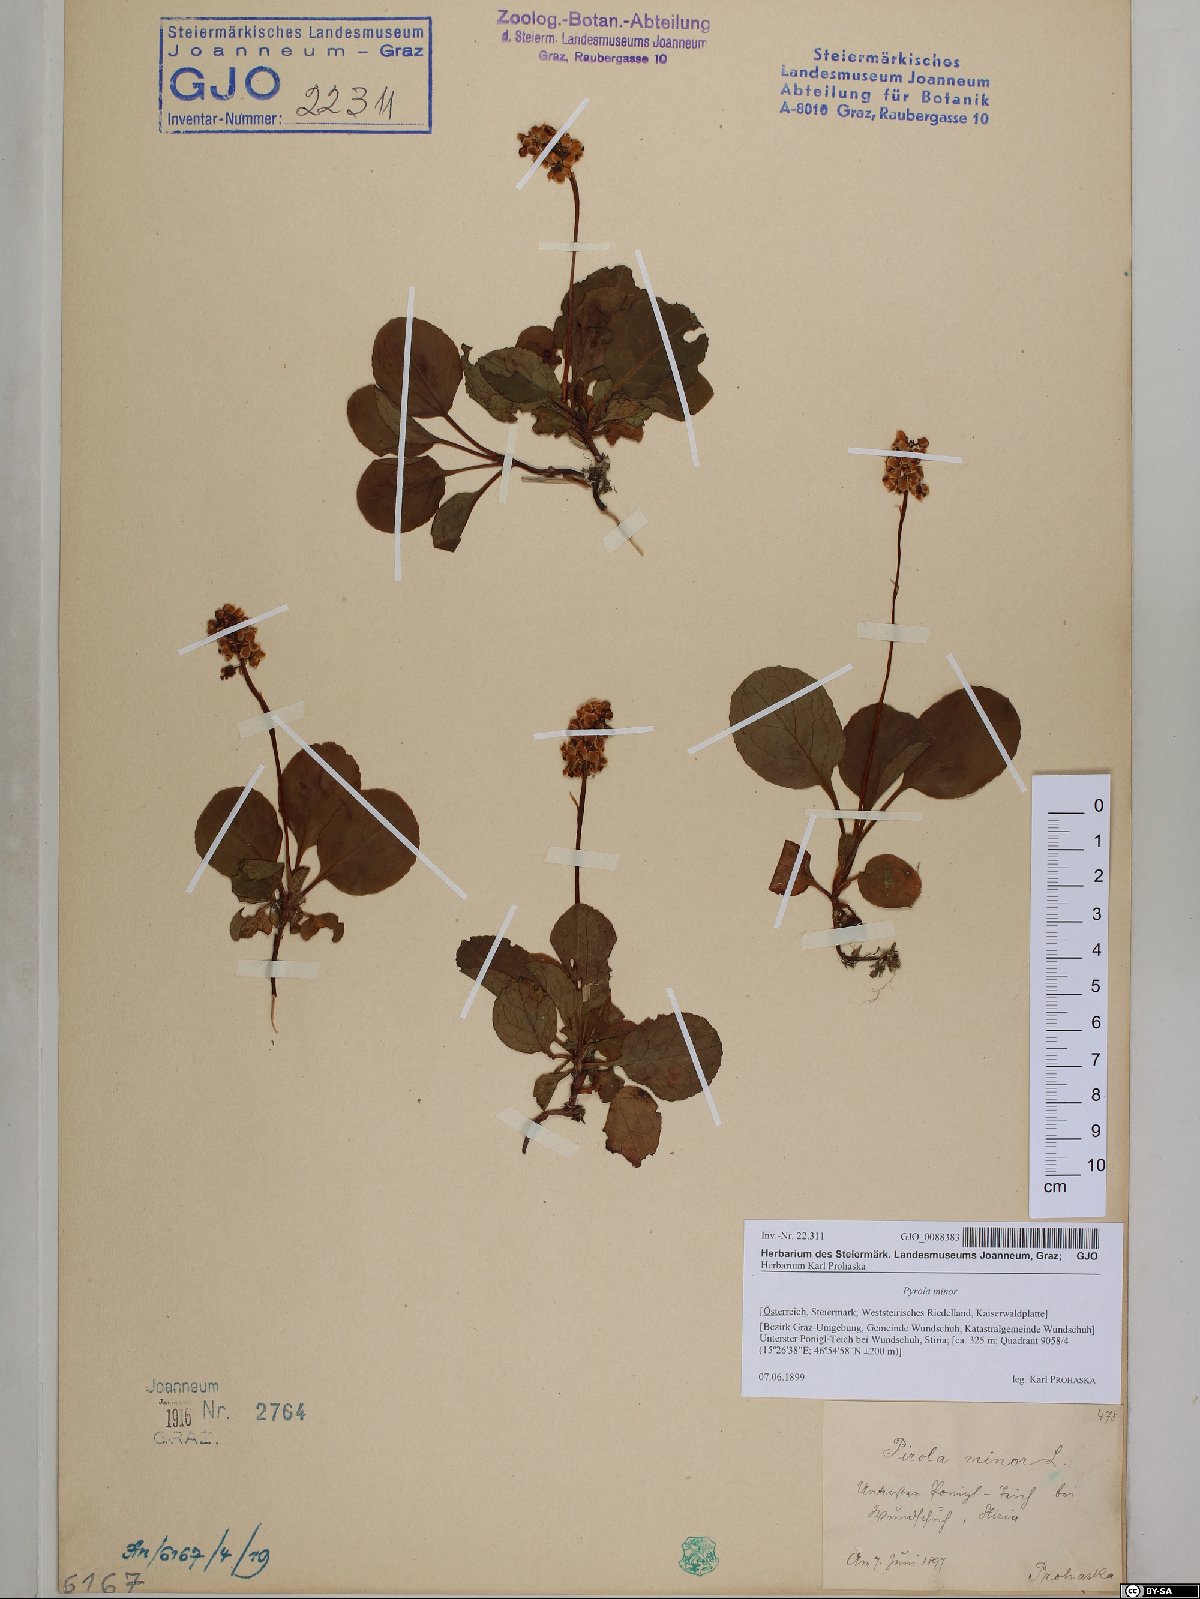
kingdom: Plantae
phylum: Tracheophyta
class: Magnoliopsida
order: Ericales
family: Ericaceae
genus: Pyrola
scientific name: Pyrola minor
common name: Common wintergreen
